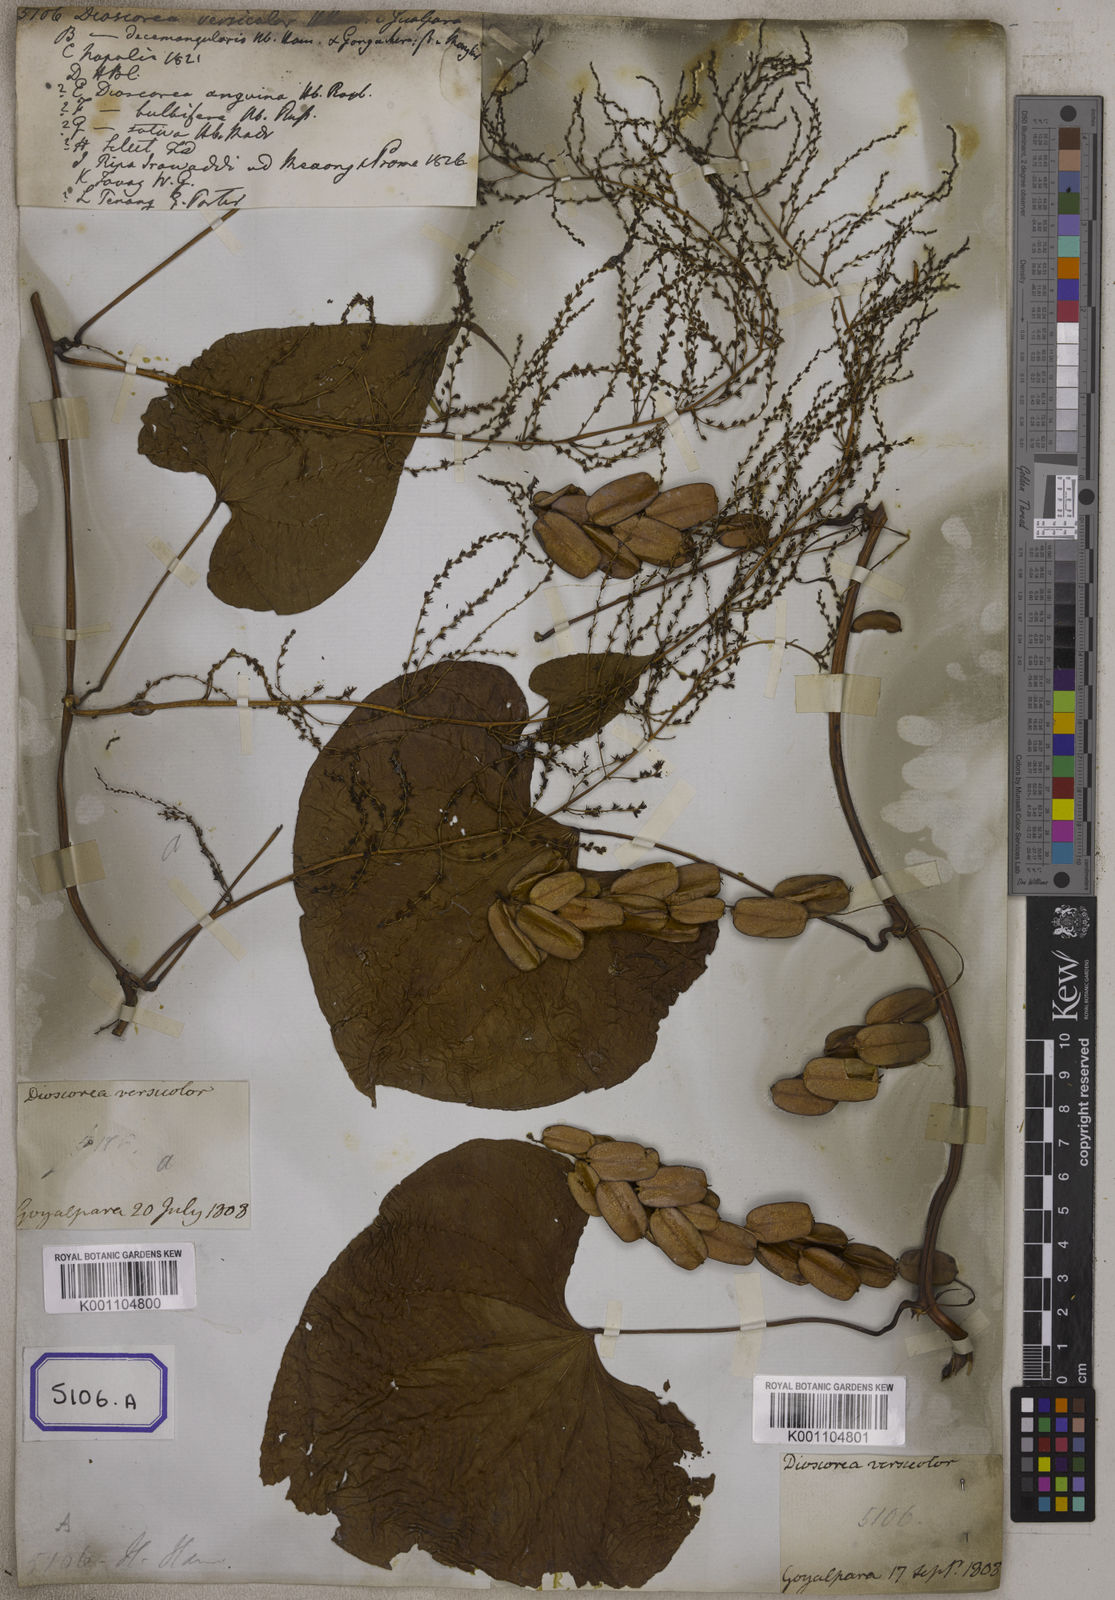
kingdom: Plantae
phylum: Tracheophyta
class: Liliopsida
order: Dioscoreales
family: Dioscoreaceae
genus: Dioscorea
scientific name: Dioscorea
